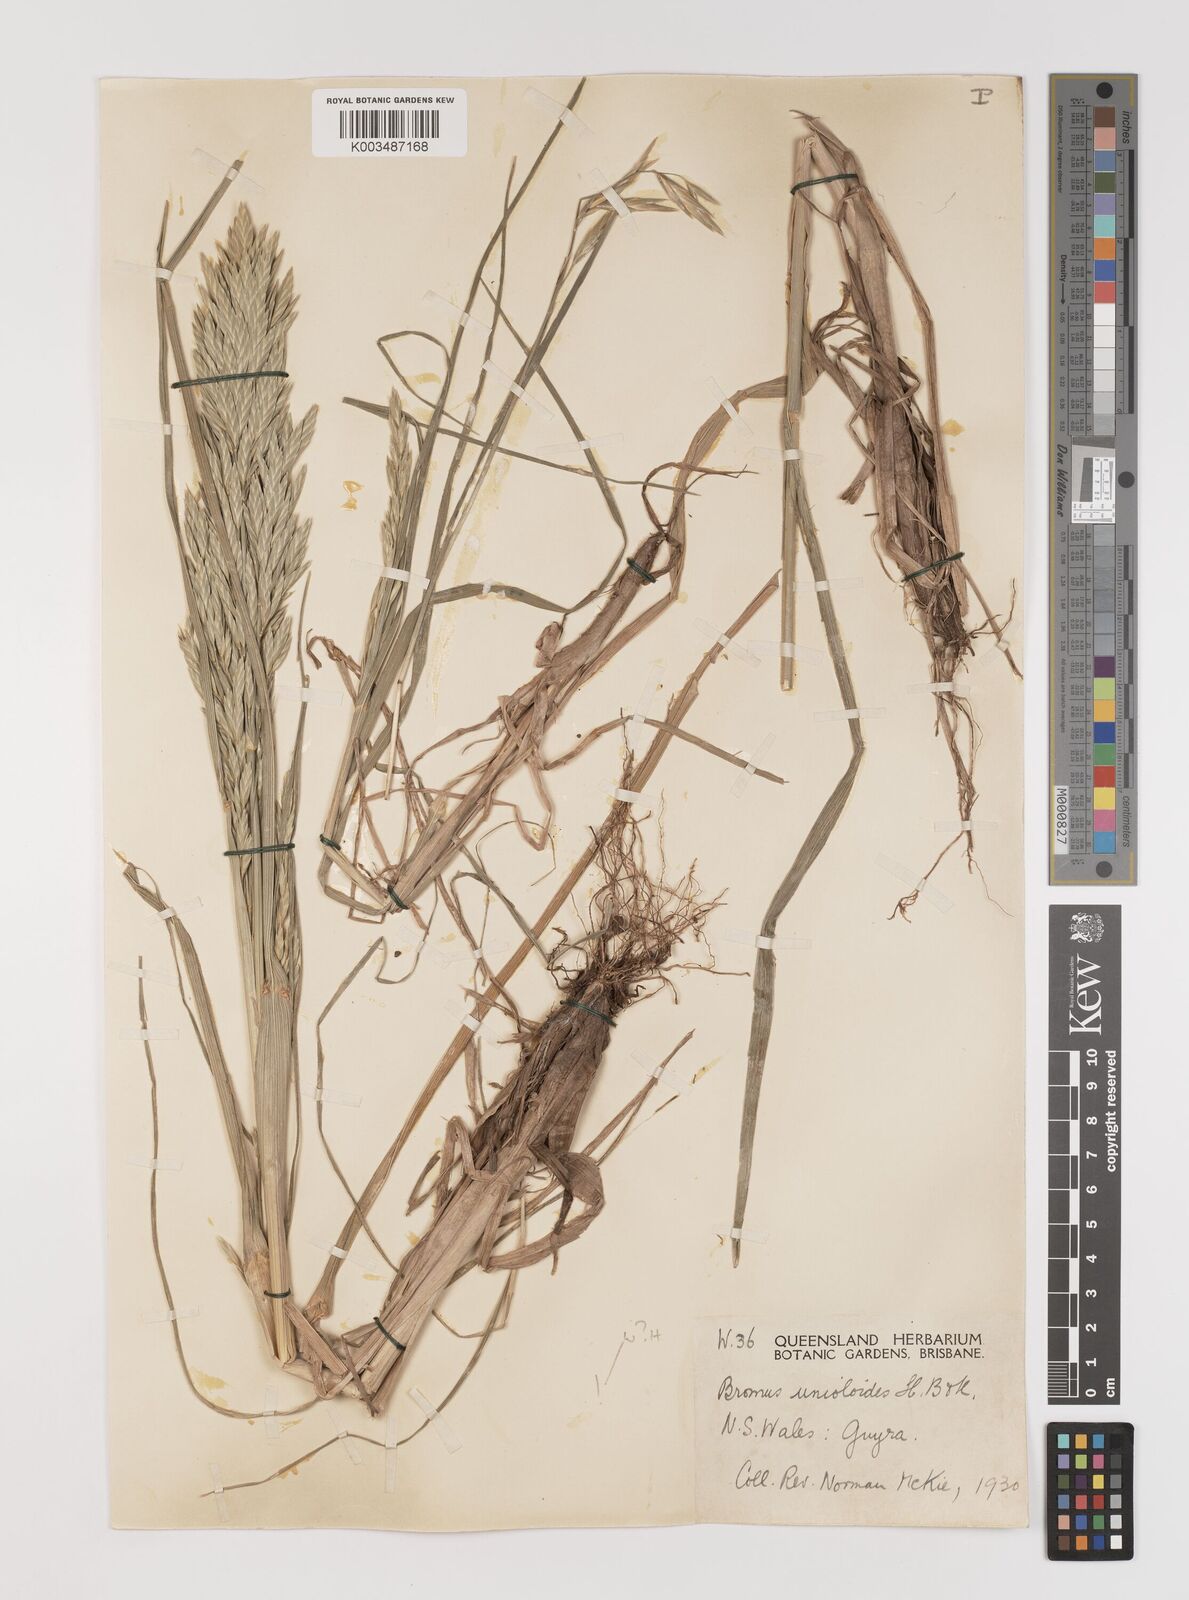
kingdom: Plantae
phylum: Tracheophyta
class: Liliopsida
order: Poales
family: Poaceae
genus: Bromus
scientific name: Bromus catharticus
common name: Rescuegrass
